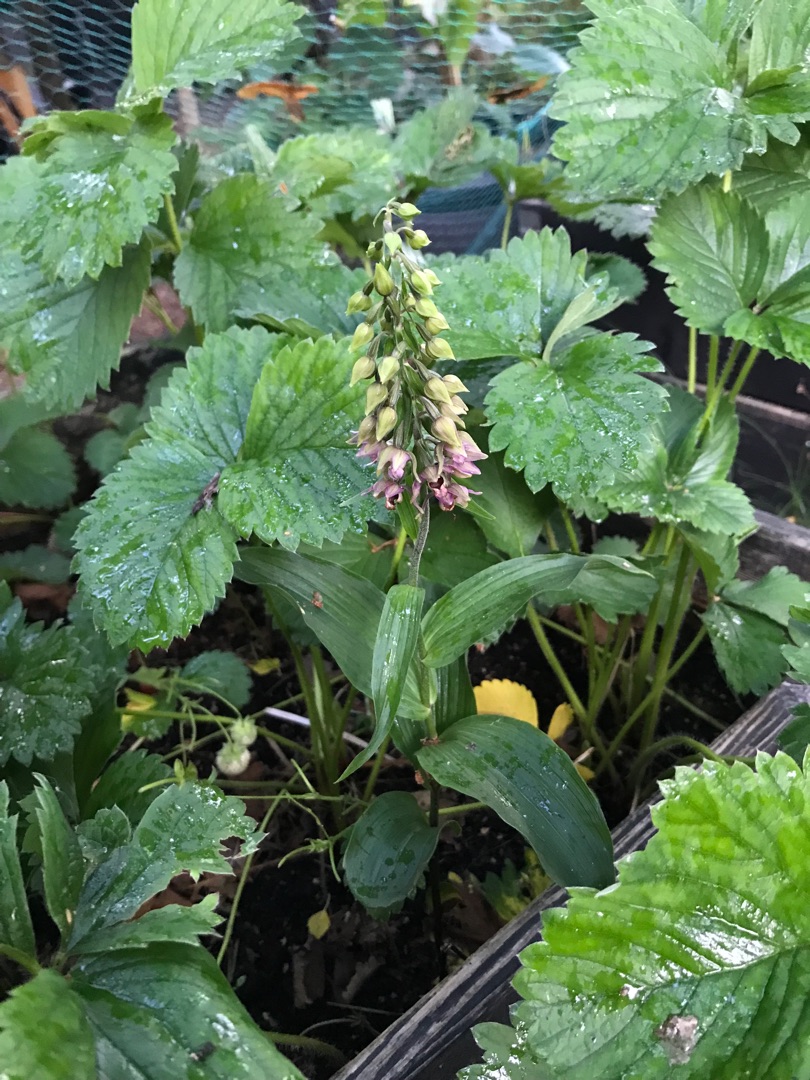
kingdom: Plantae
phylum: Tracheophyta
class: Liliopsida
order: Asparagales
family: Orchidaceae
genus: Epipactis
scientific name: Epipactis helleborine
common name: Skov-hullæbe
